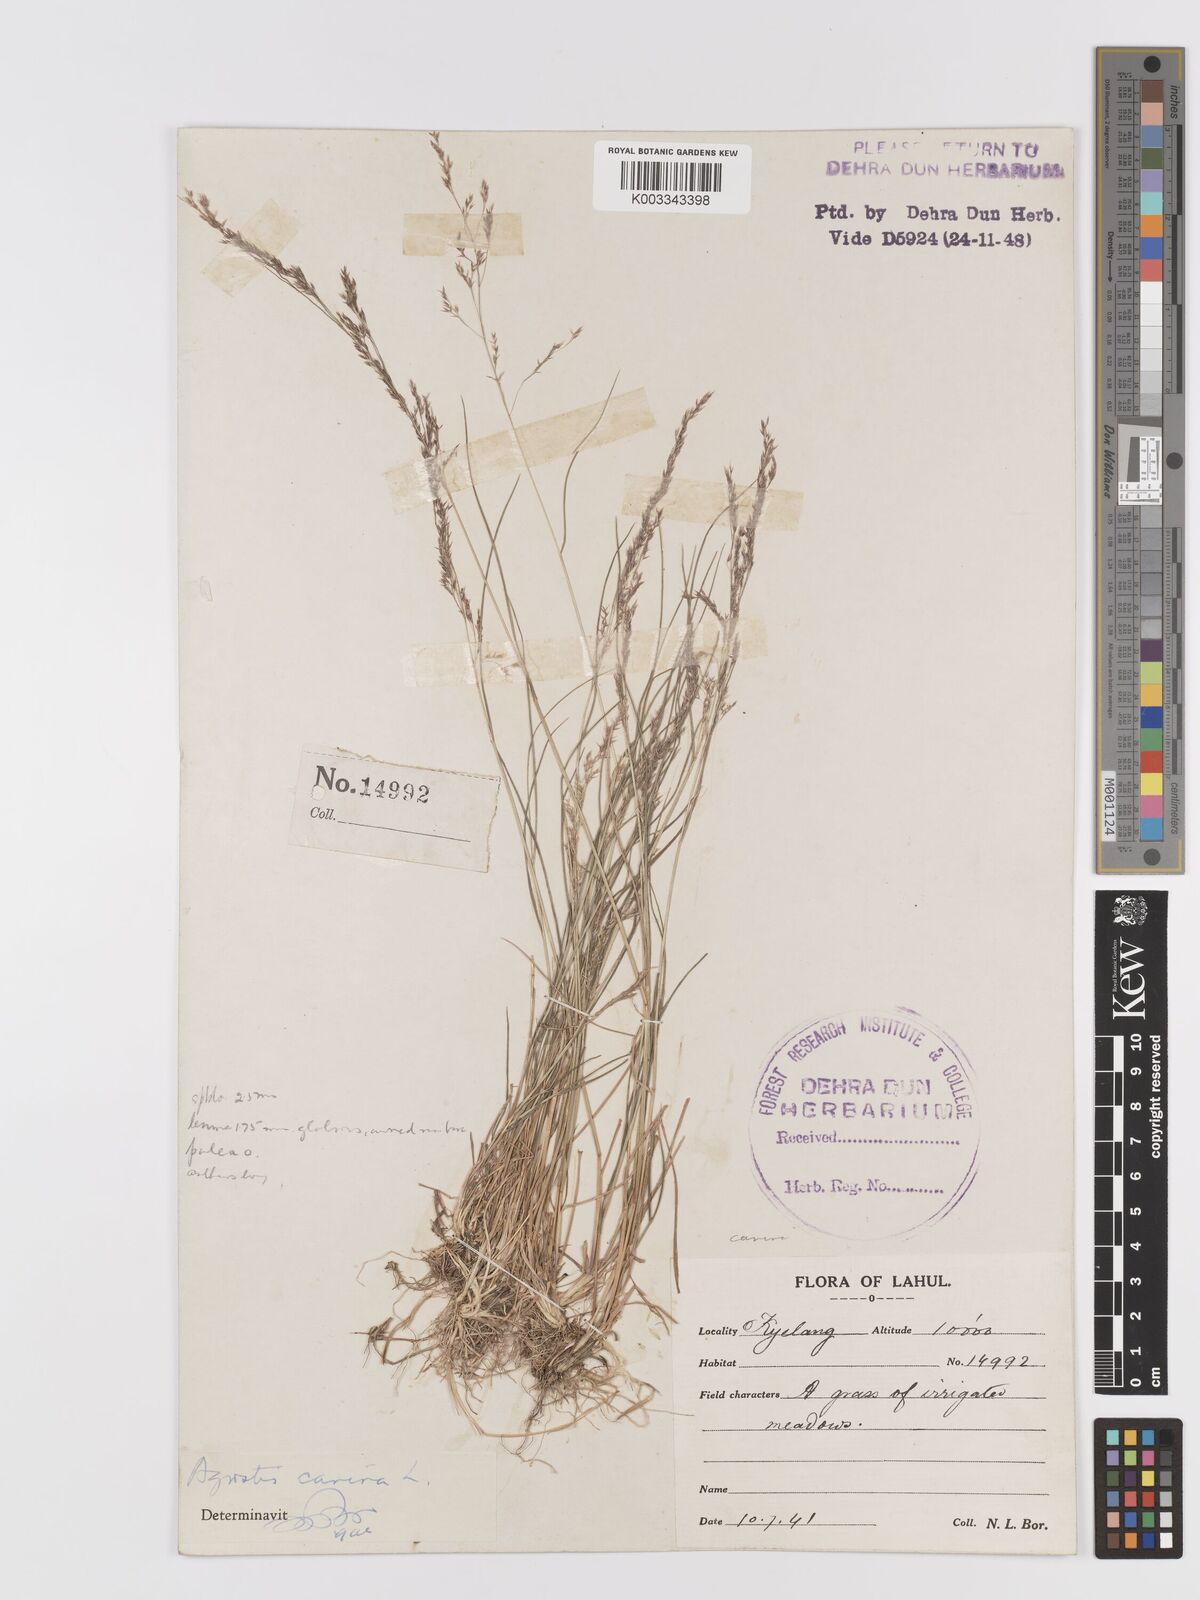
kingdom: Plantae
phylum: Tracheophyta
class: Liliopsida
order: Poales
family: Poaceae
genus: Agrostis
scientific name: Agrostis vinealis
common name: Brown bent
